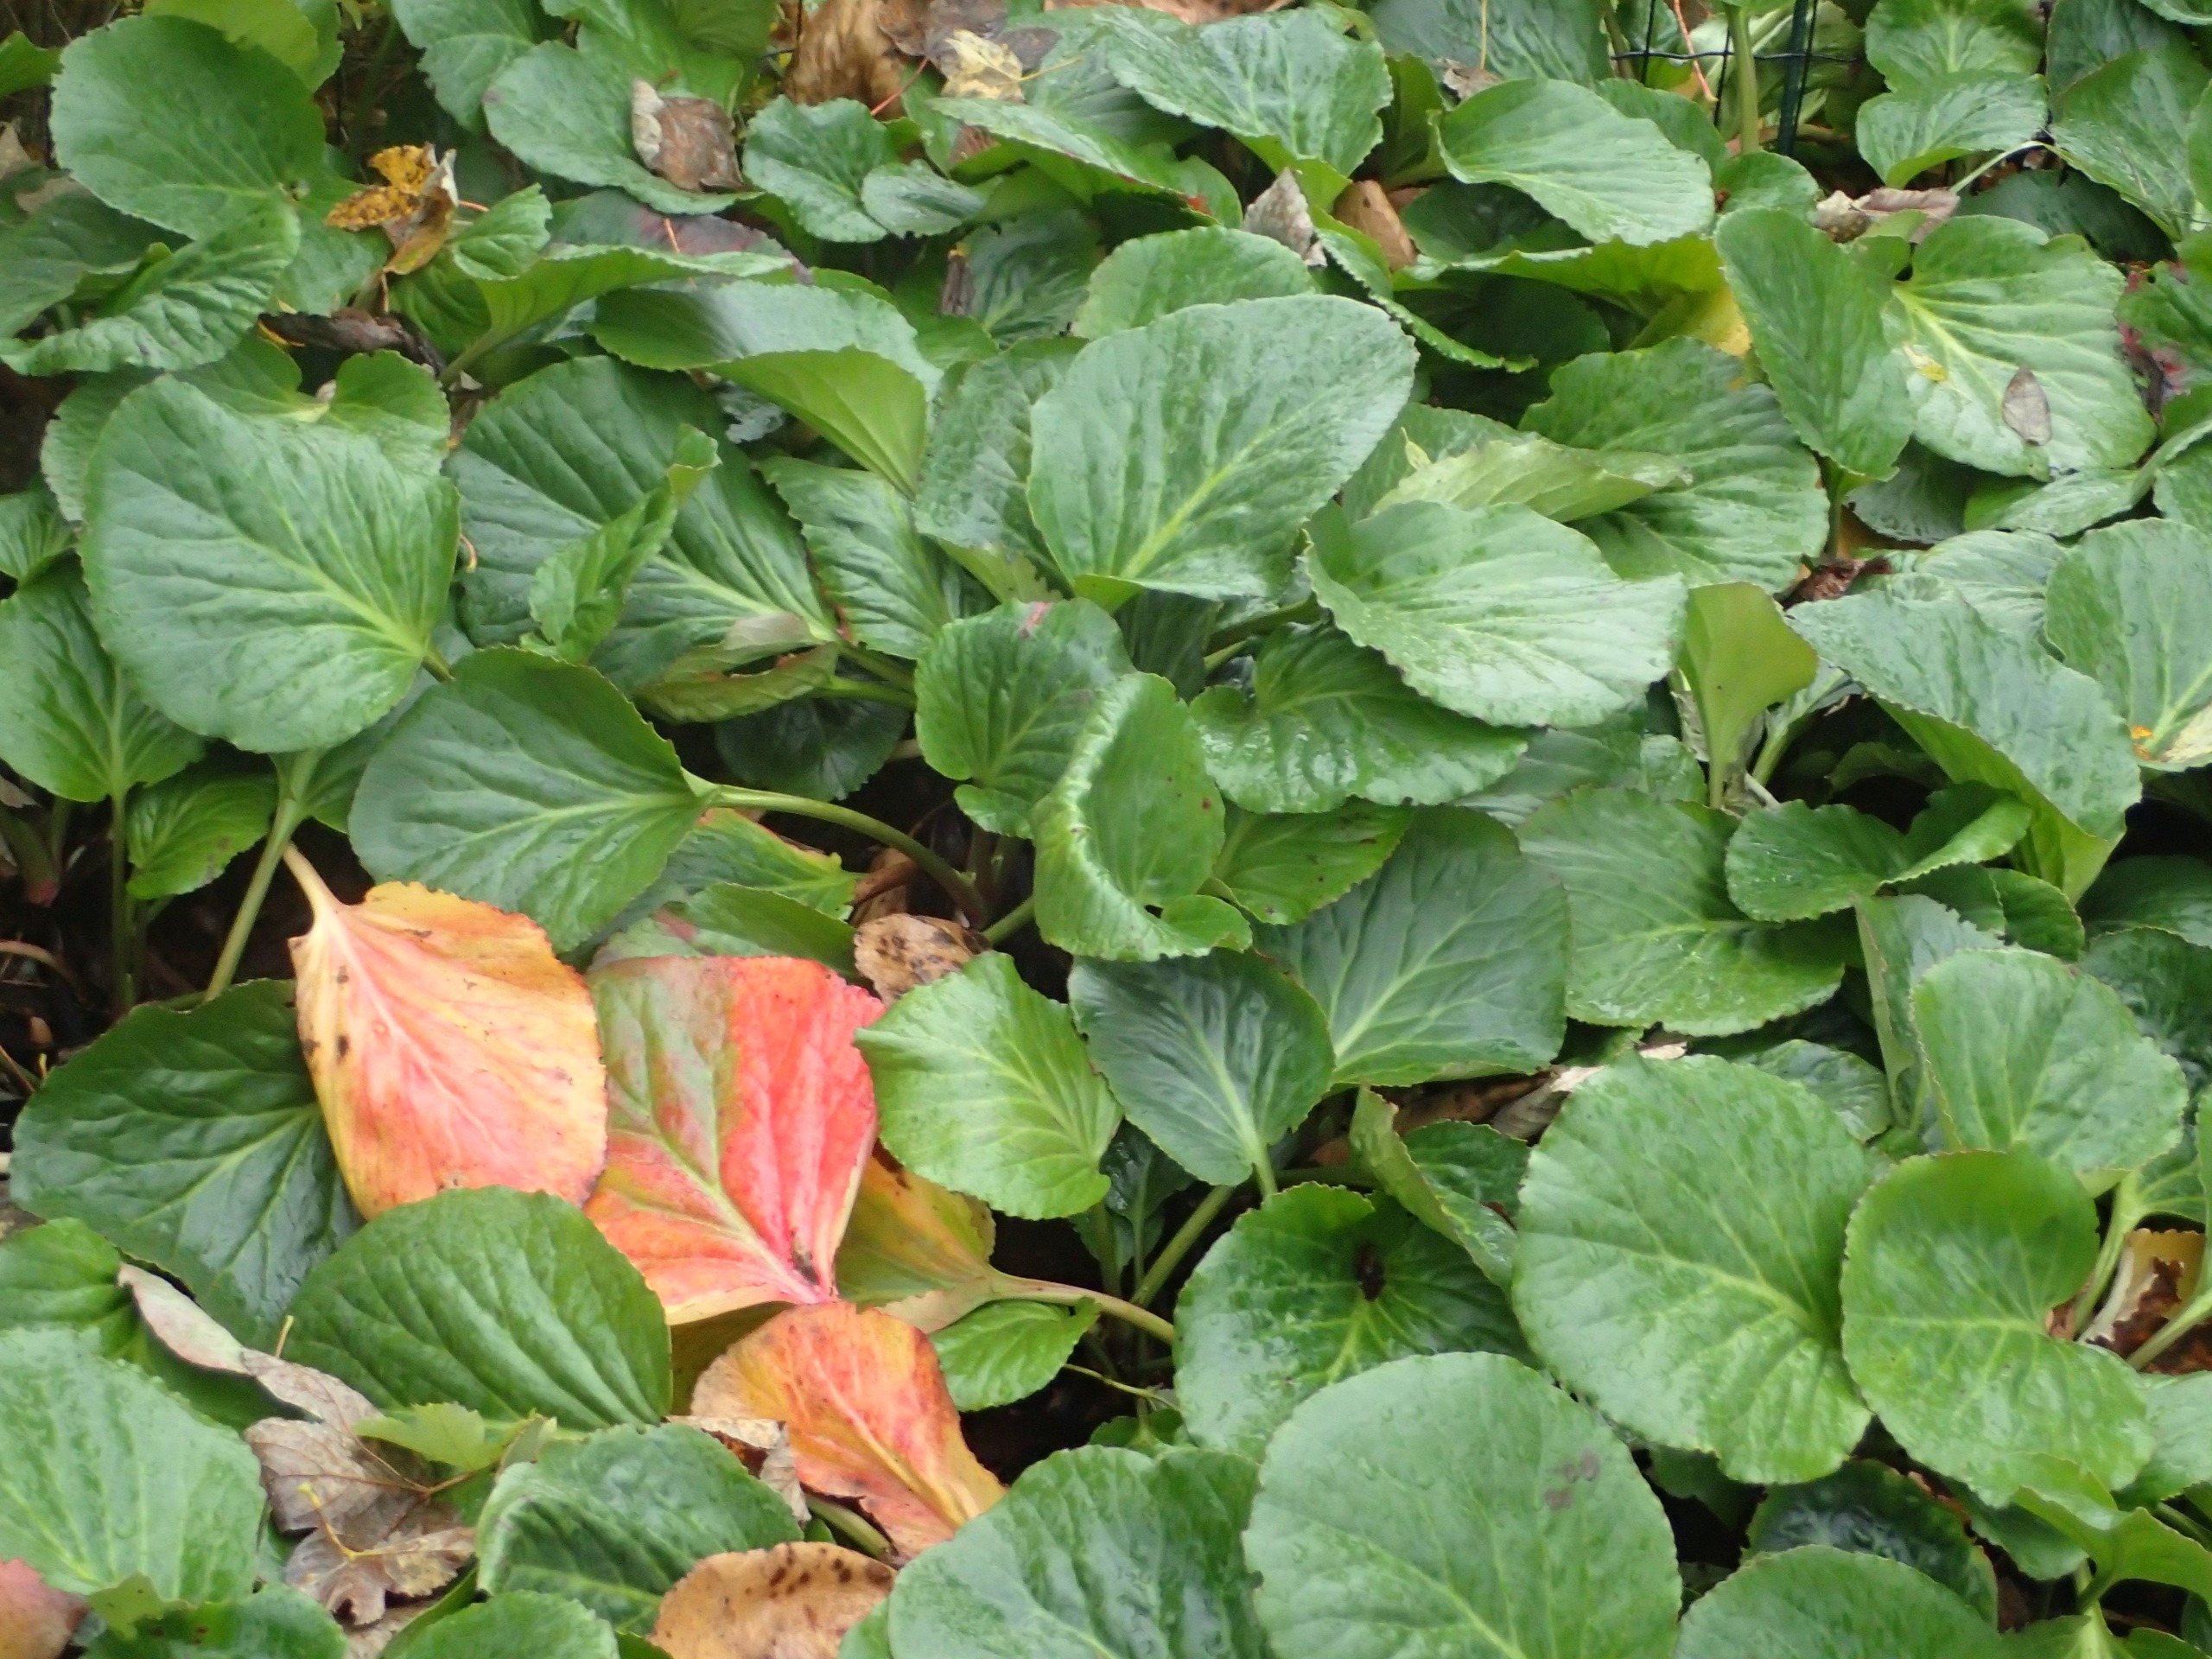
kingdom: Plantae
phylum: Tracheophyta
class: Magnoliopsida
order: Saxifragales
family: Saxifragaceae
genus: Bergenia
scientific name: Bergenia crassifolia
